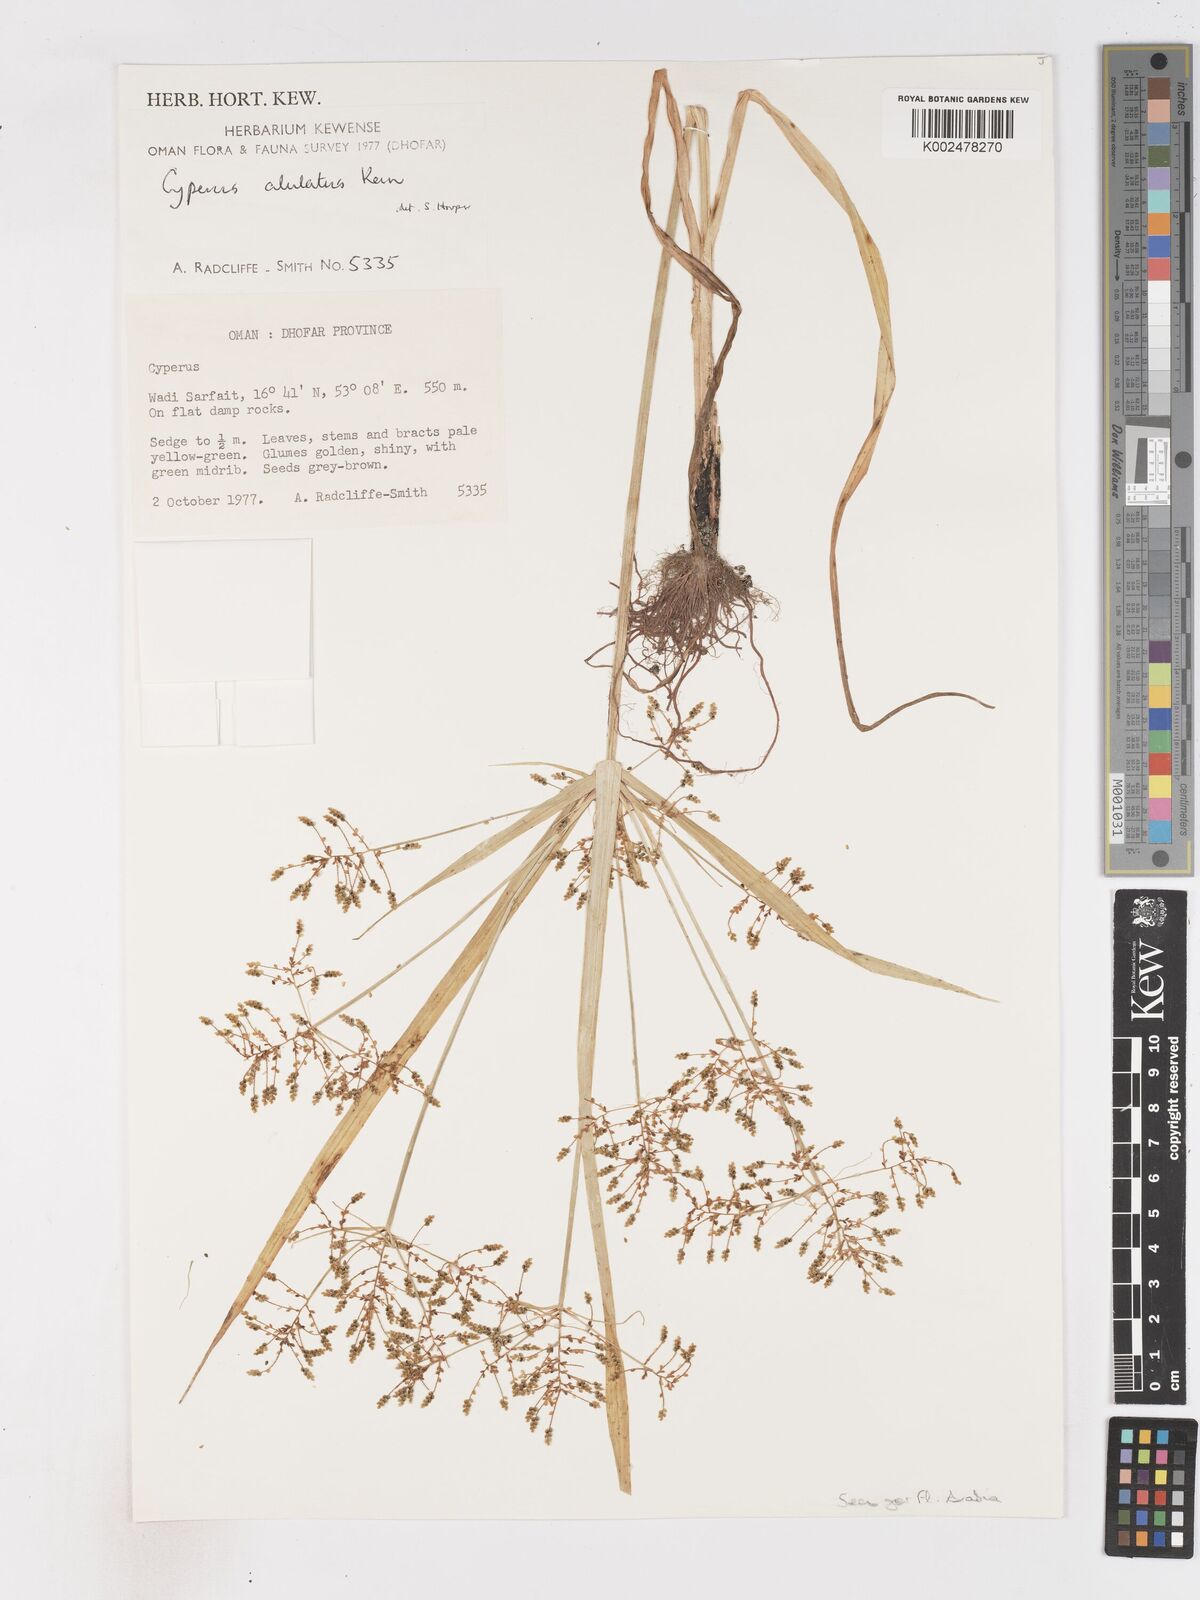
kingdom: Plantae
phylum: Tracheophyta
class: Liliopsida
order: Poales
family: Cyperaceae
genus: Cyperus
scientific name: Cyperus alulatus
